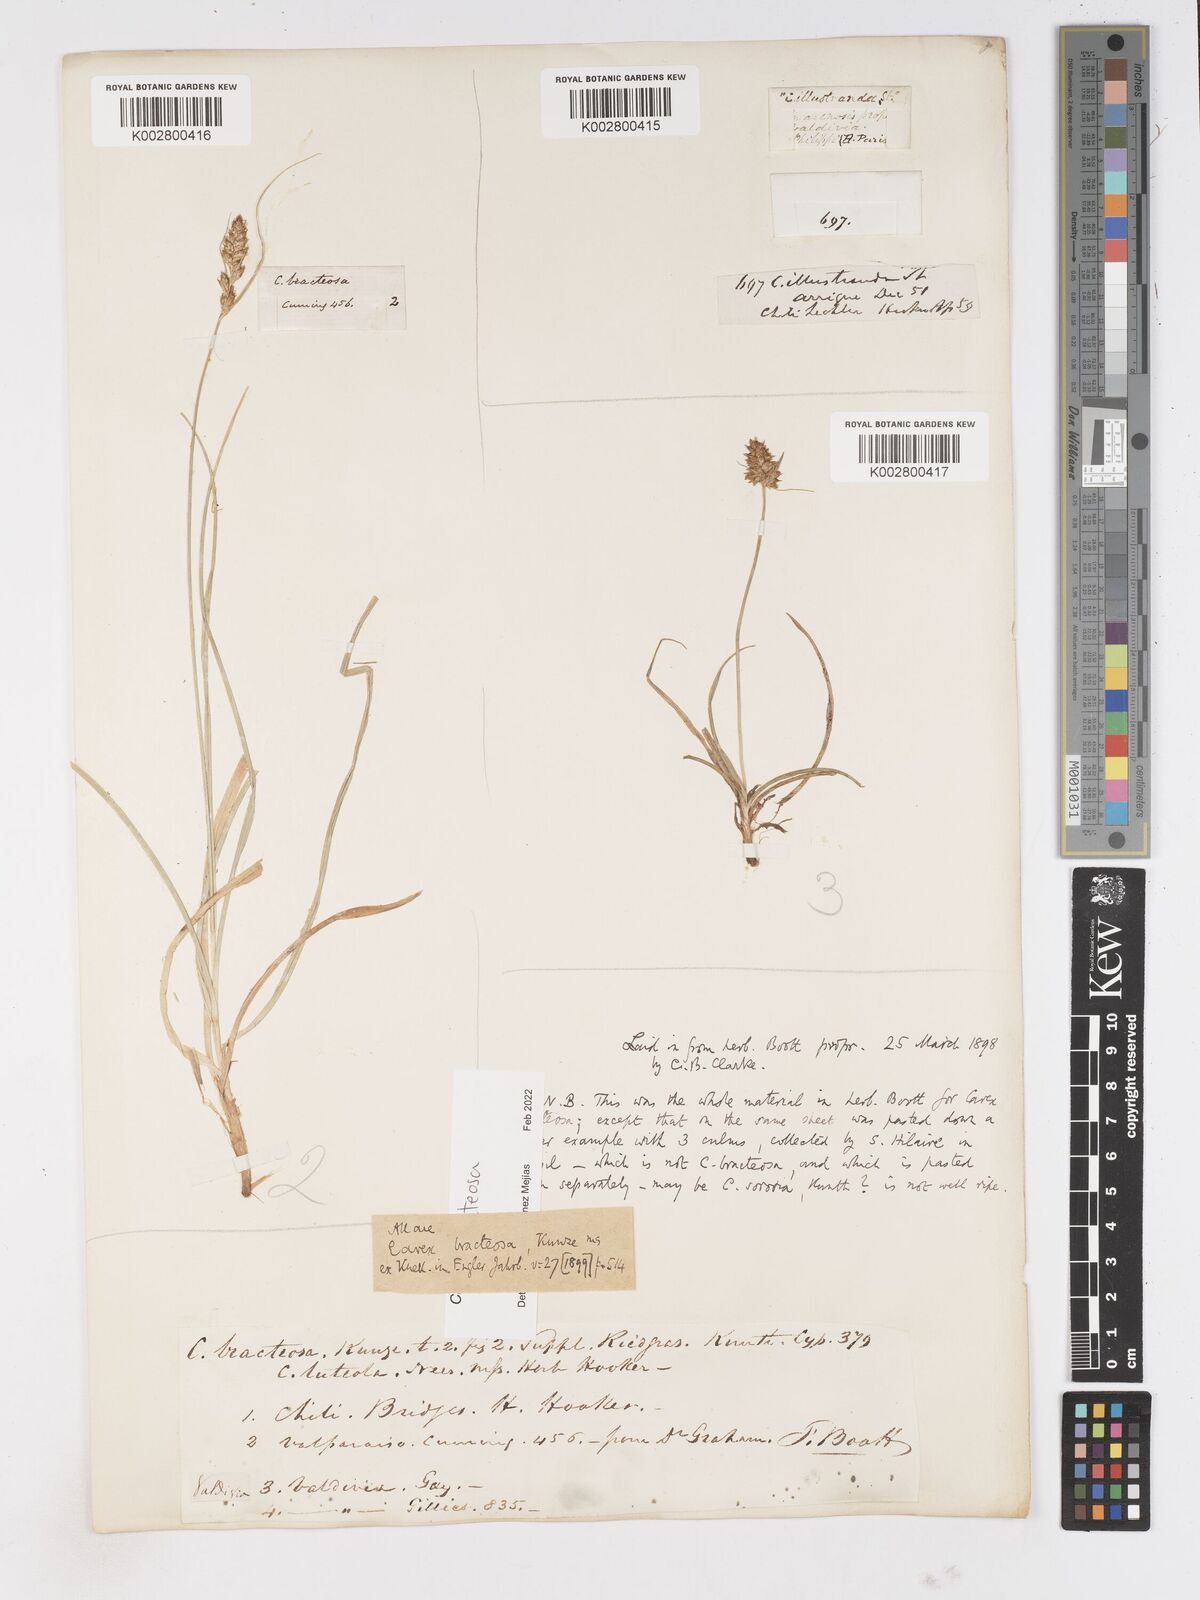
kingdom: Plantae
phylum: Tracheophyta
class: Liliopsida
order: Poales
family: Cyperaceae
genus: Carex
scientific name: Carex bracteosa
